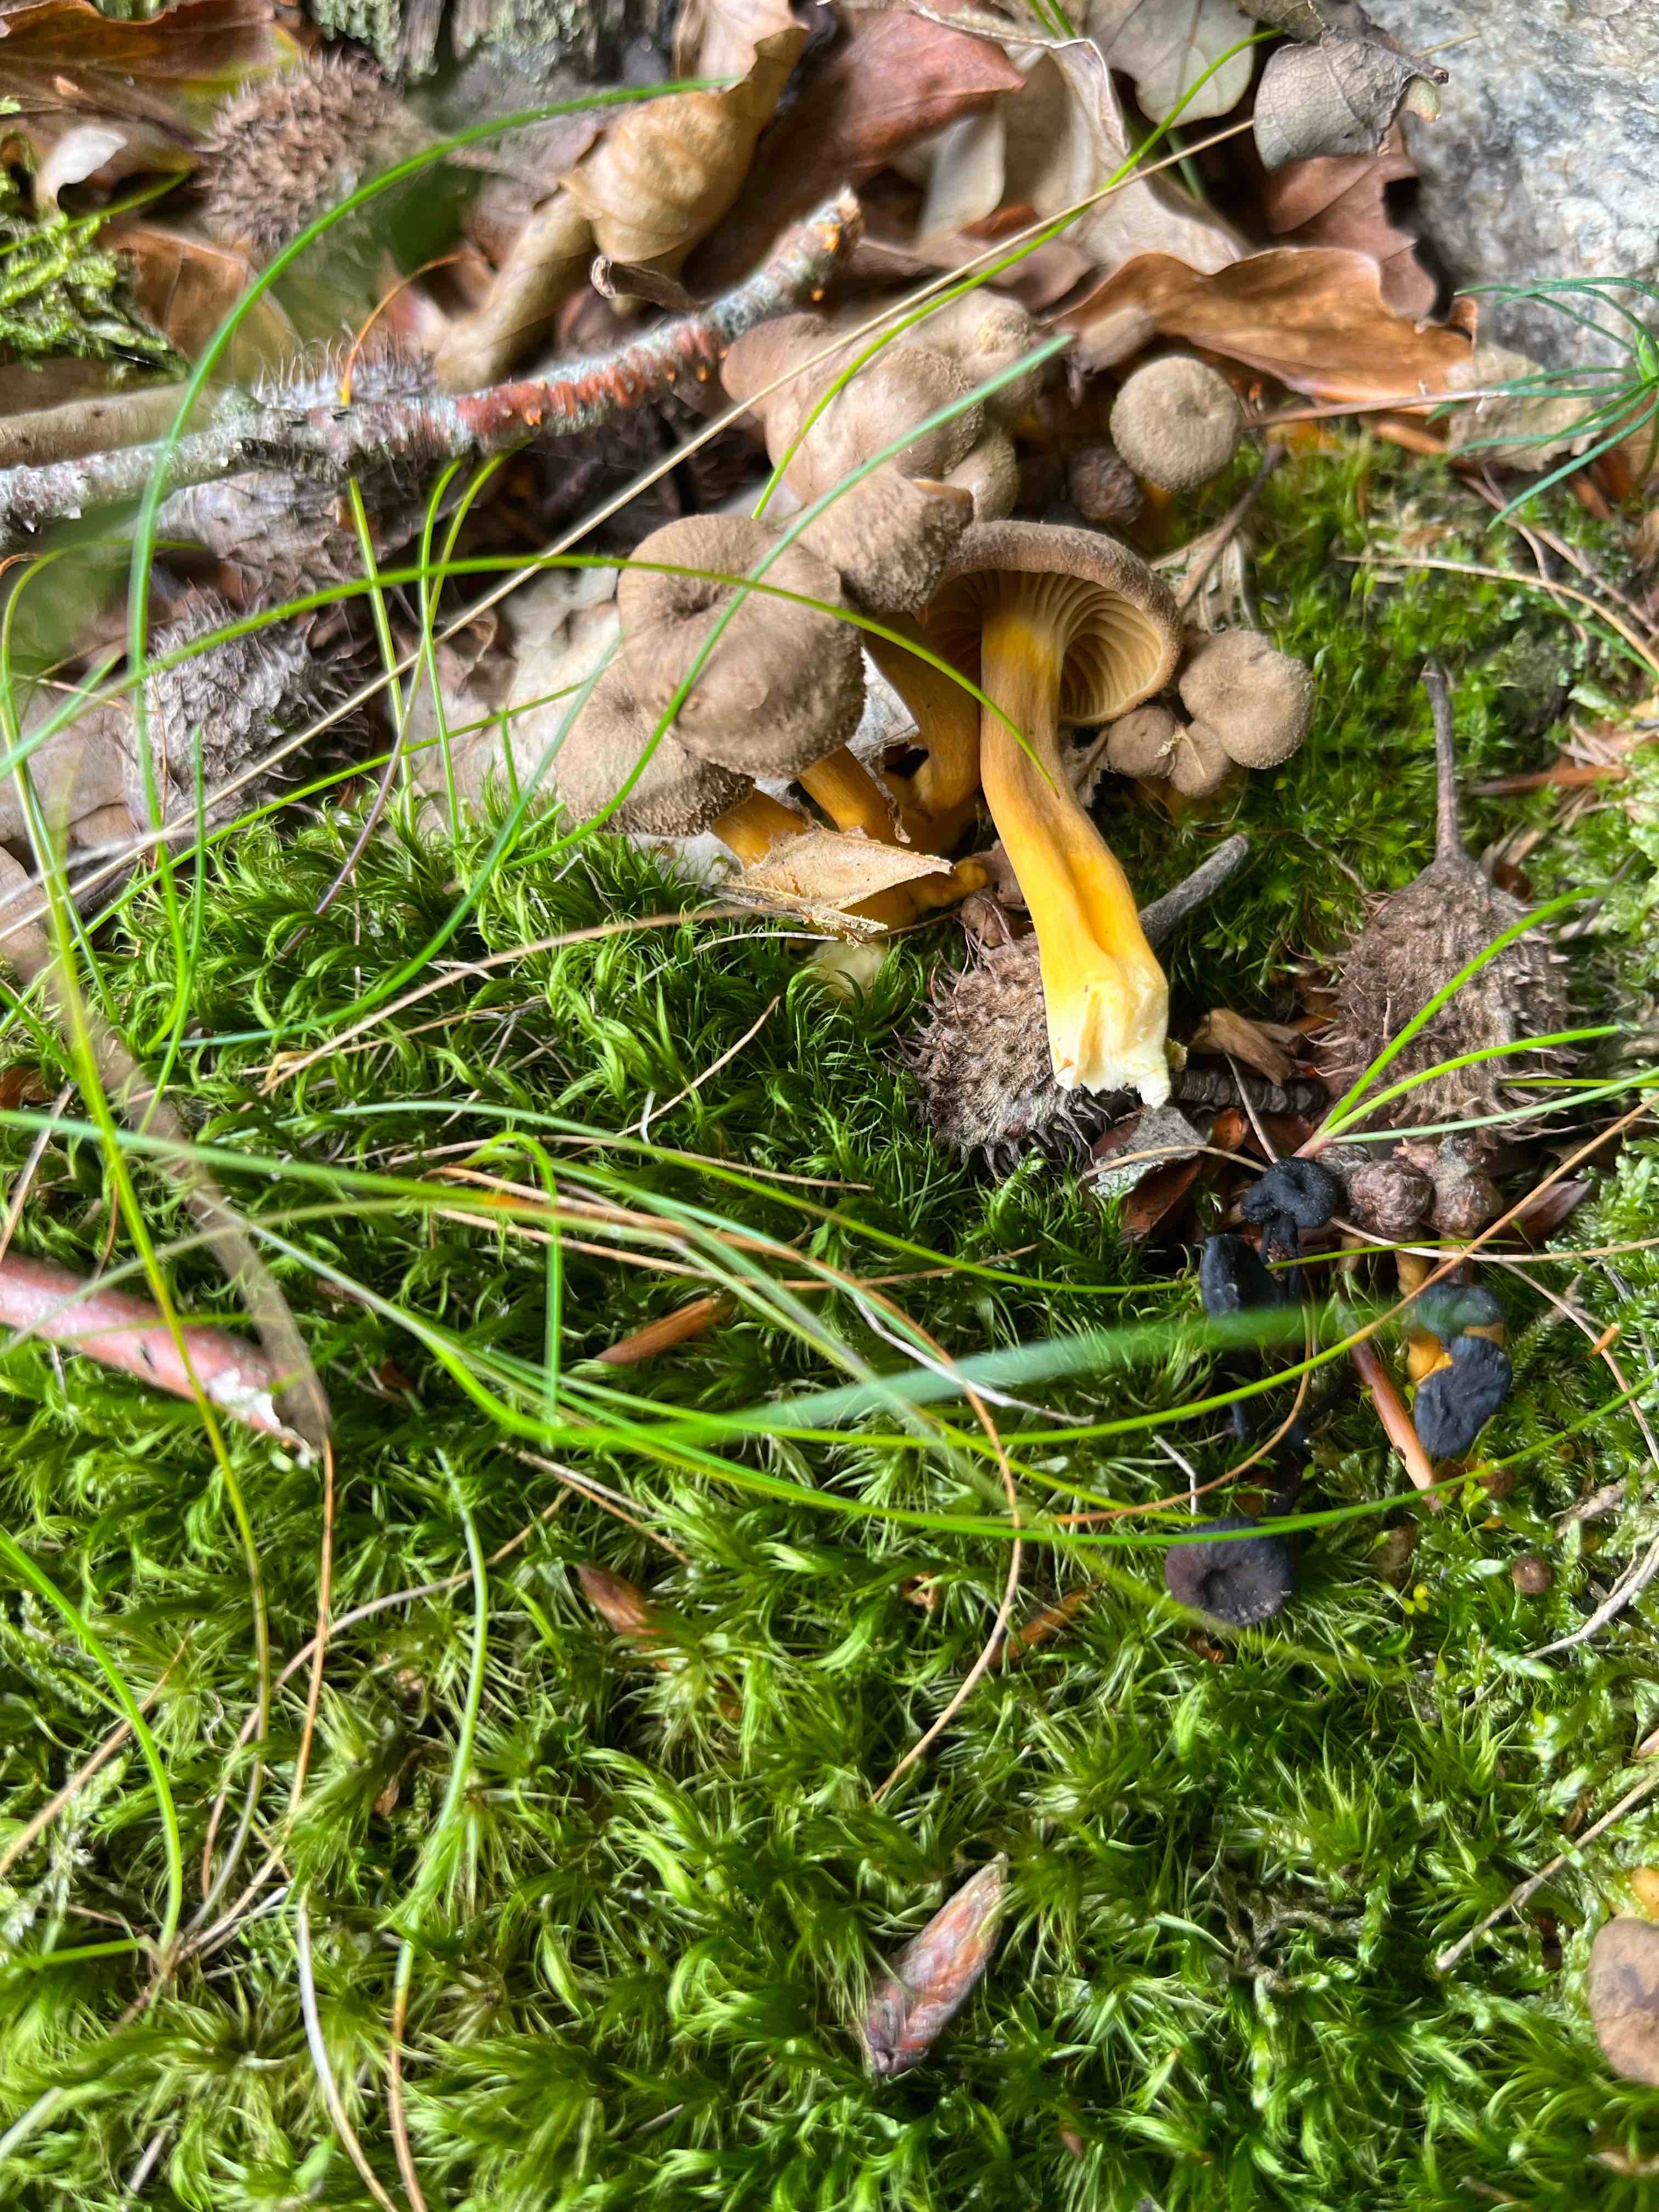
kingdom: Fungi
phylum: Basidiomycota
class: Agaricomycetes
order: Cantharellales
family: Hydnaceae
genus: Craterellus
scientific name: Craterellus tubaeformis
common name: tragt-kantarel
